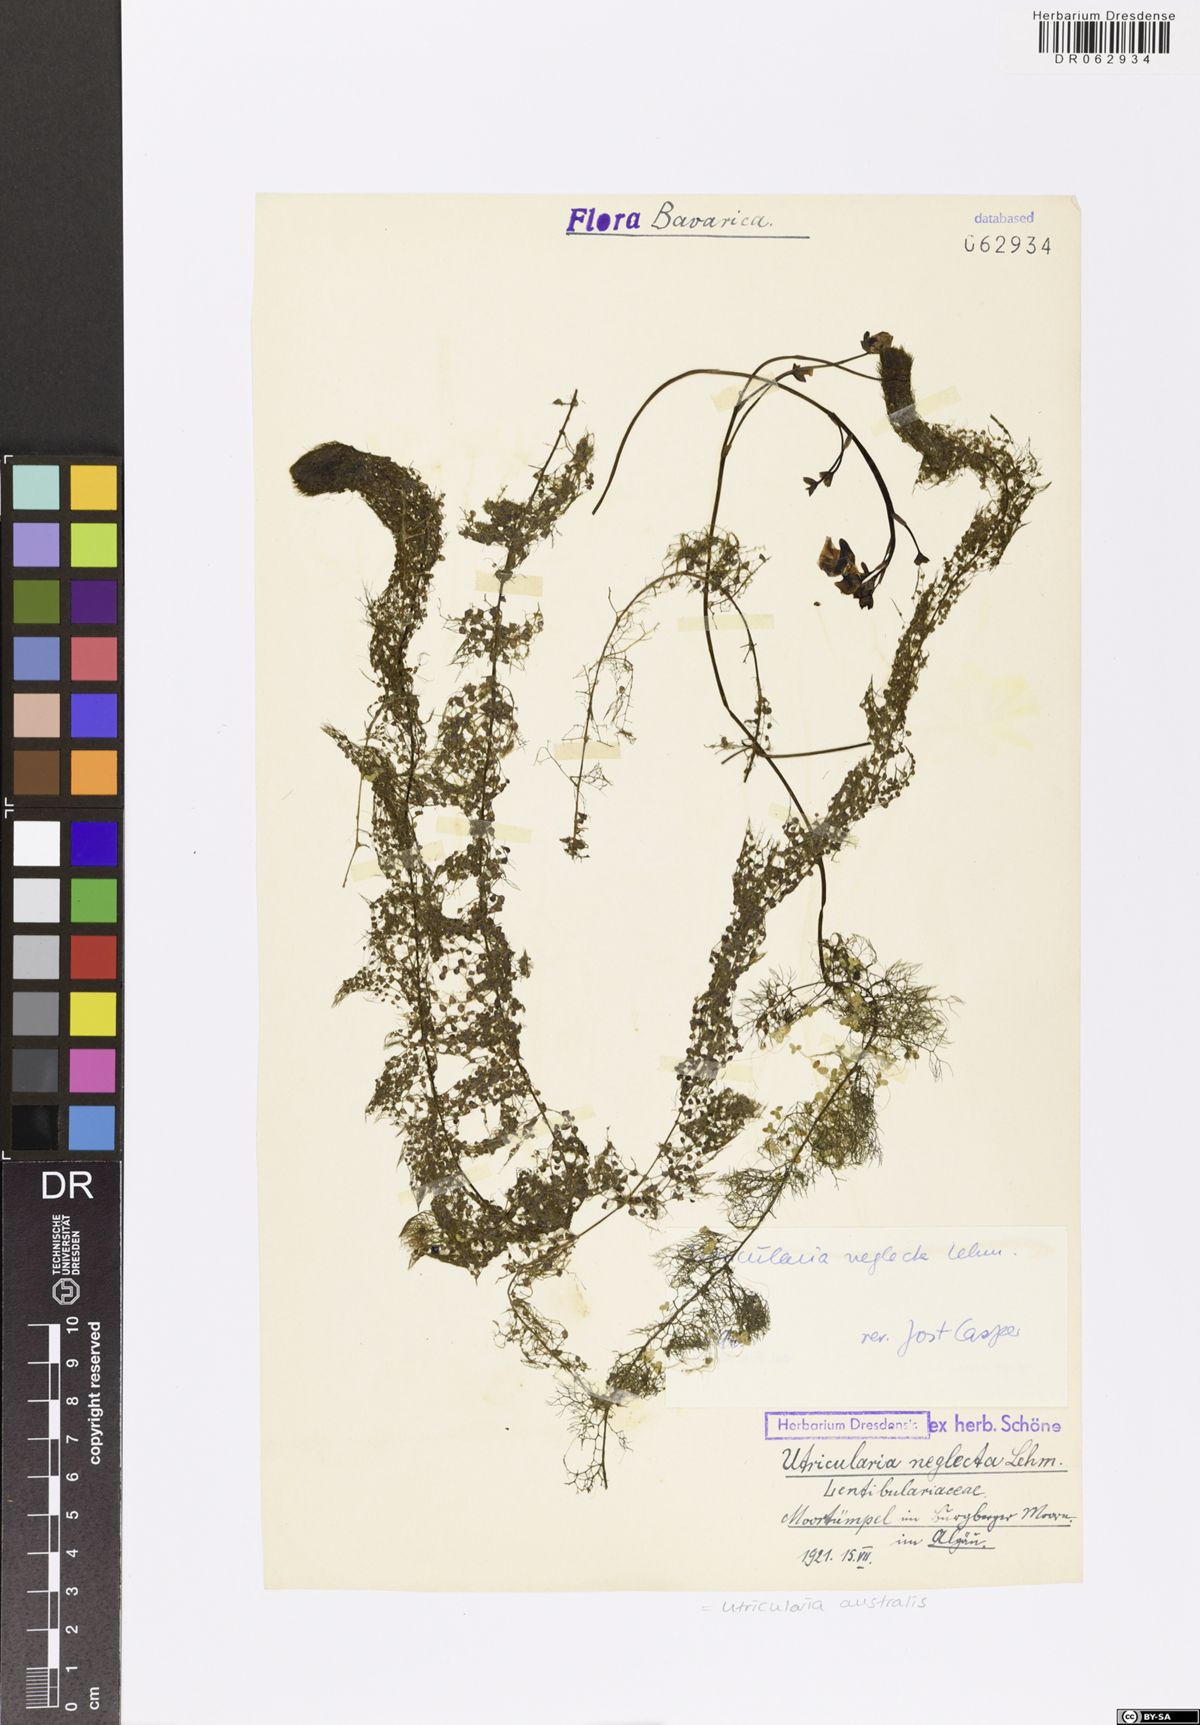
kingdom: Plantae
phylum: Tracheophyta
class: Magnoliopsida
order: Lamiales
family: Lentibulariaceae
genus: Utricularia
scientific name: Utricularia australis
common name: Bladderwort
